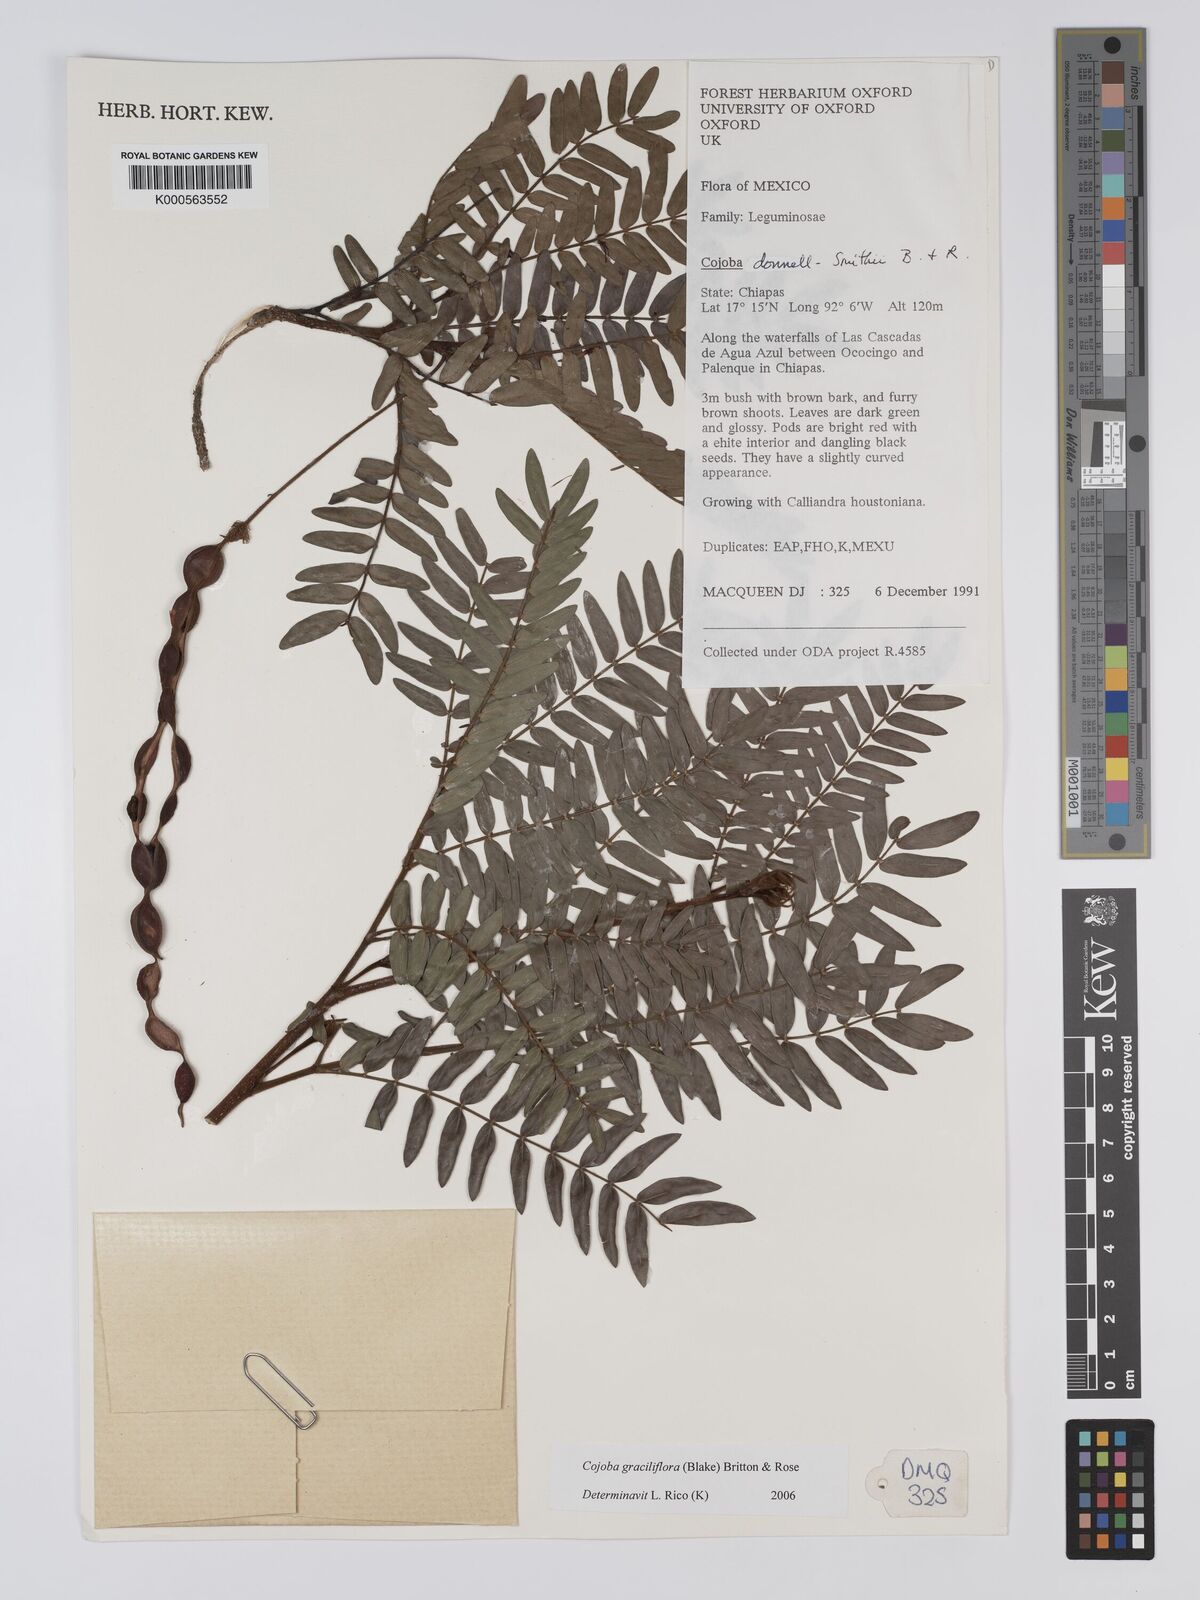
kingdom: Plantae
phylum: Tracheophyta
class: Magnoliopsida
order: Fabales
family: Fabaceae
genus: Cojoba
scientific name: Cojoba graciliflora
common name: Guadeloupe blackbead
